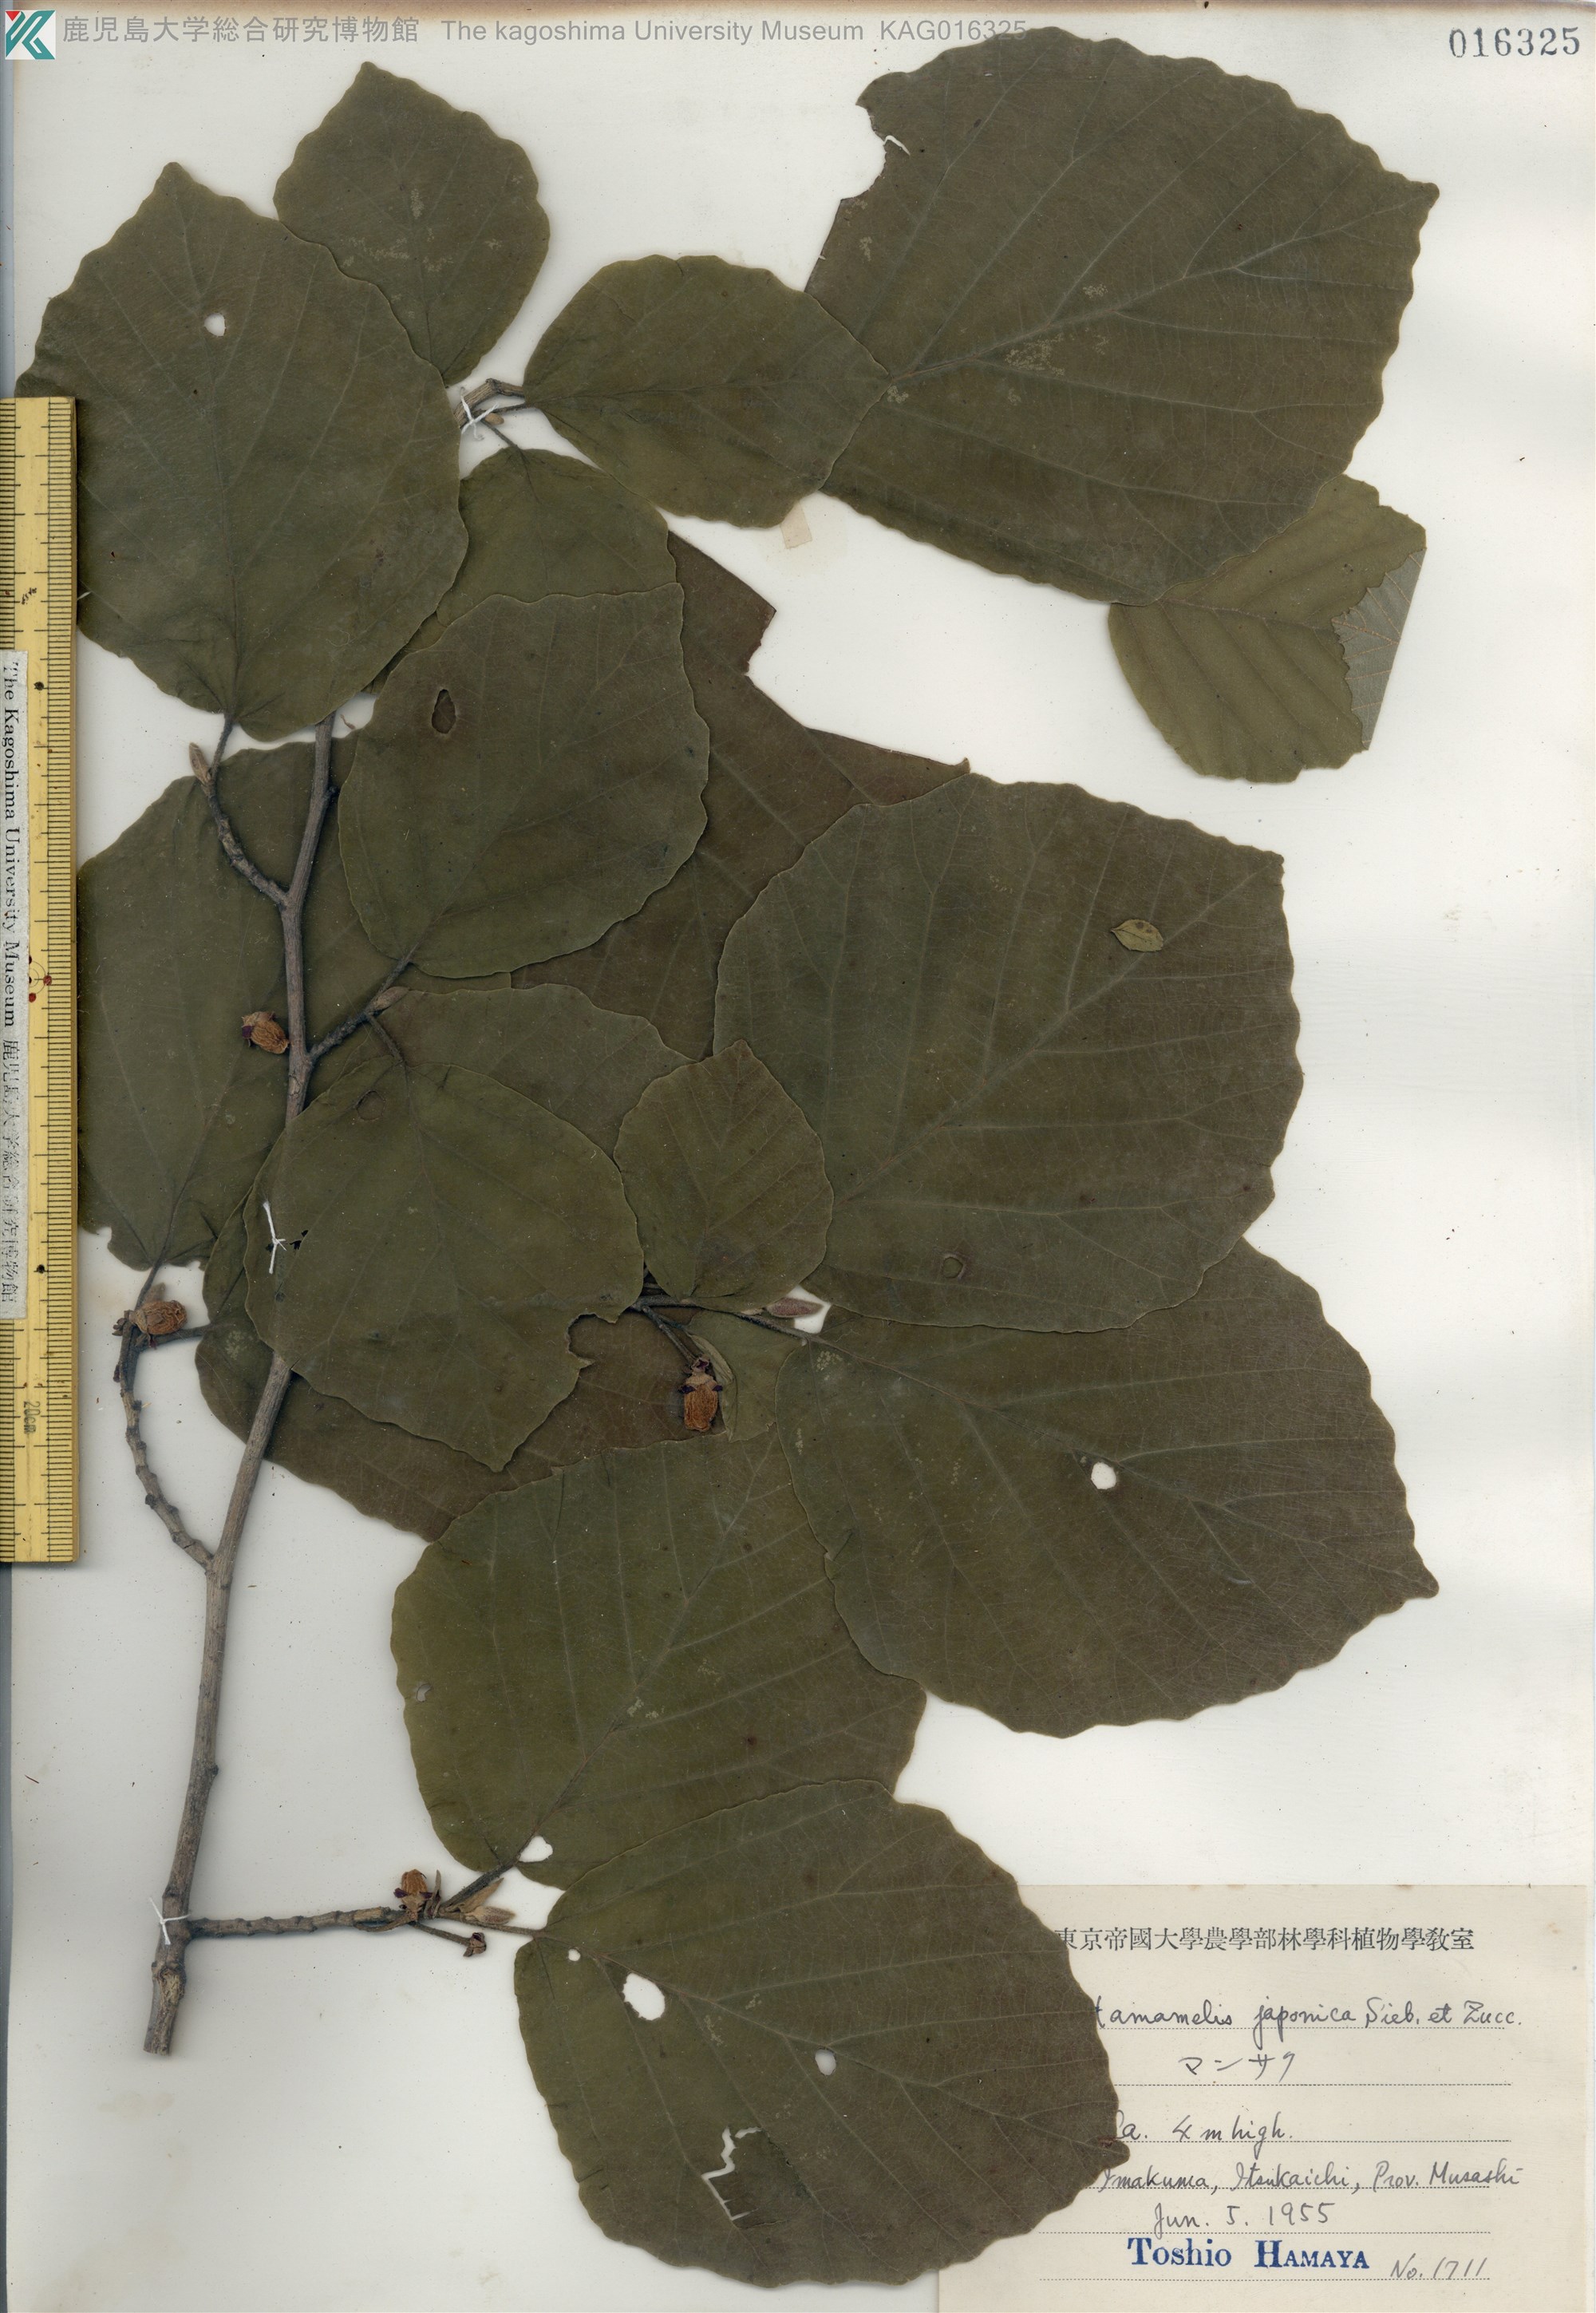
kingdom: Plantae
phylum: Tracheophyta
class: Magnoliopsida
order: Saxifragales
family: Hamamelidaceae
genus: Hamamelis
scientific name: Hamamelis japonica
